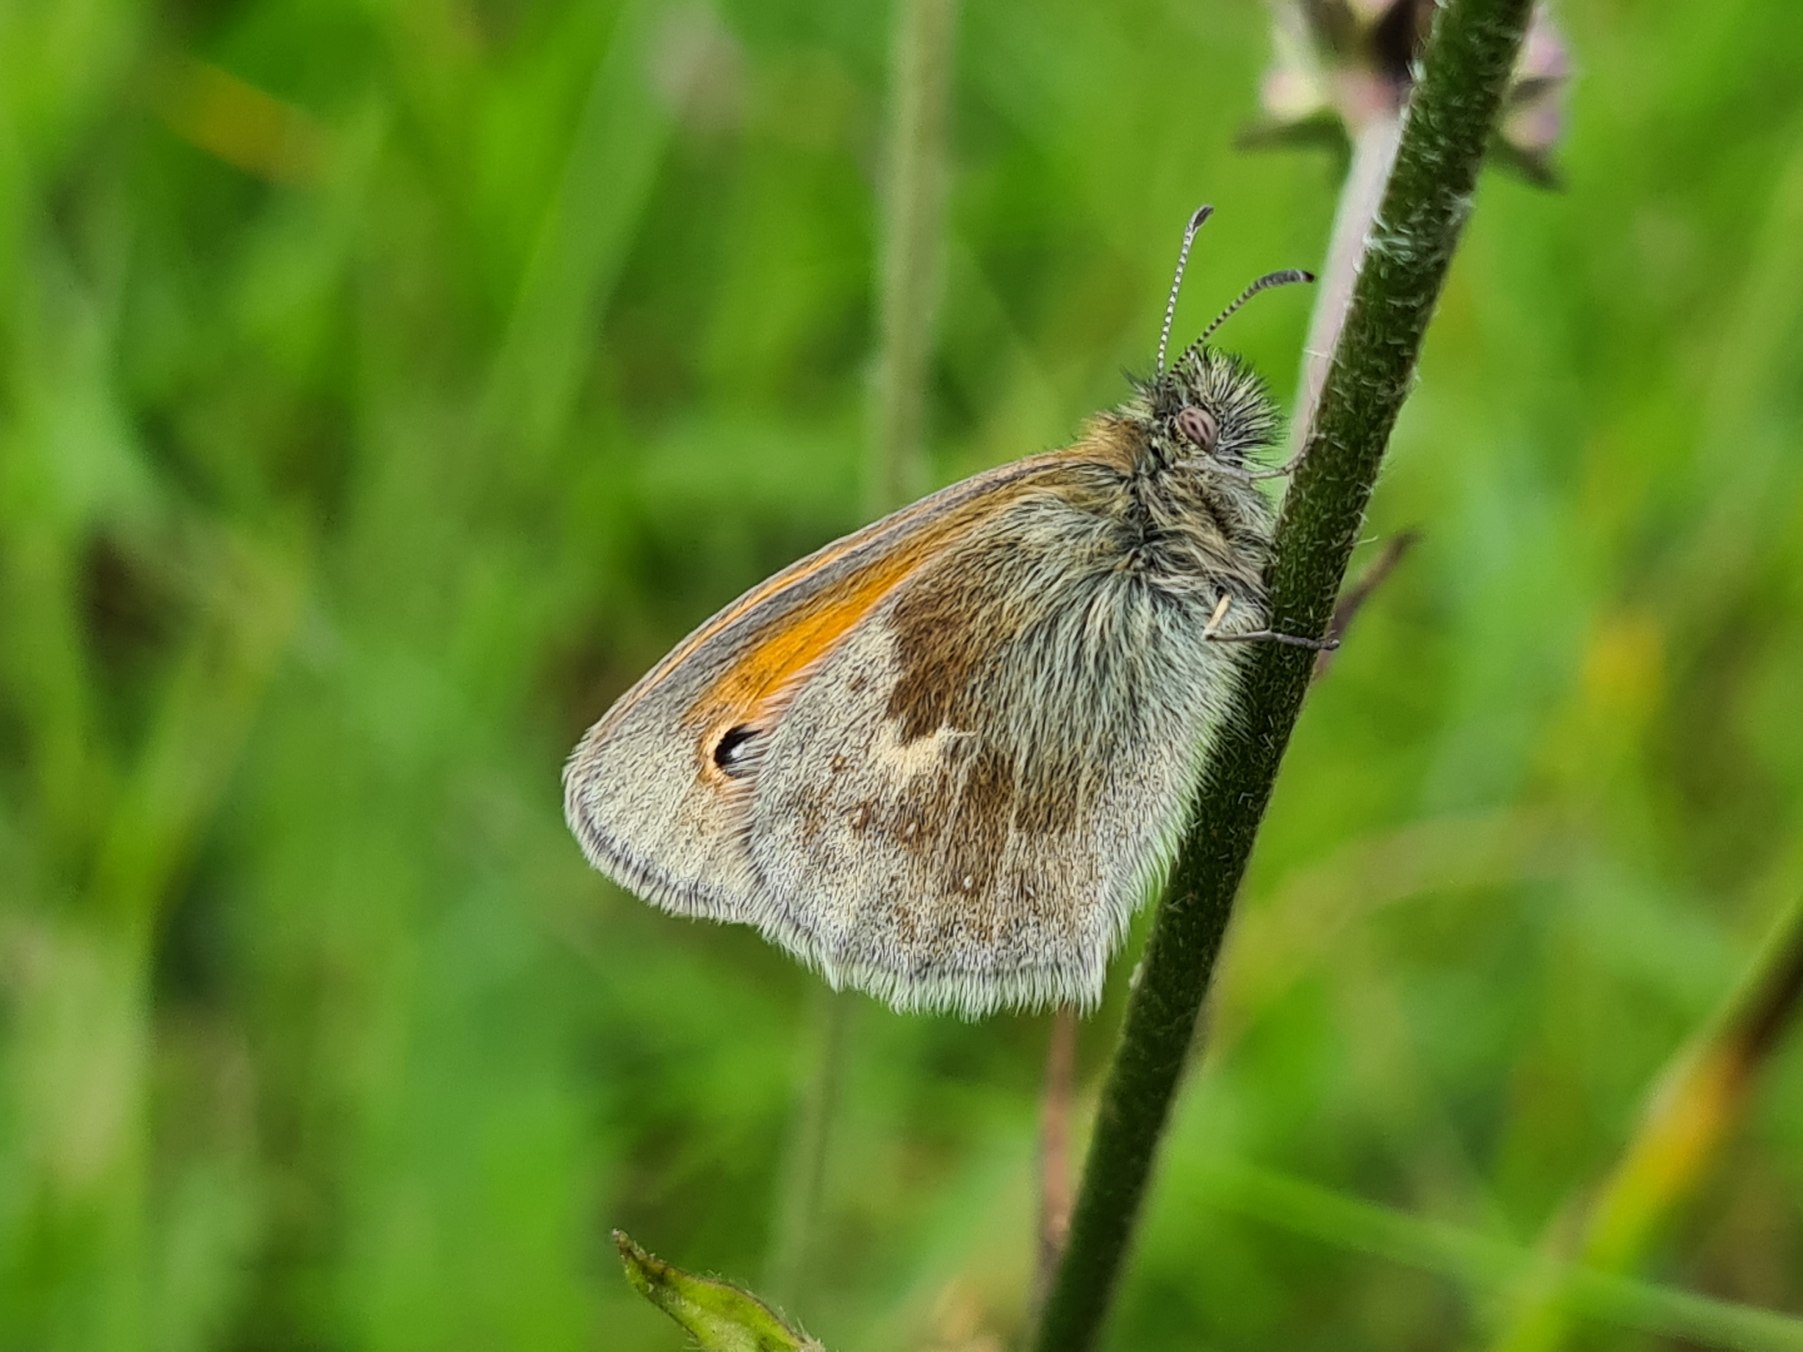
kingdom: Animalia
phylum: Arthropoda
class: Insecta
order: Lepidoptera
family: Nymphalidae
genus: Coenonympha
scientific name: Coenonympha pamphilus
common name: Okkergul randøje
